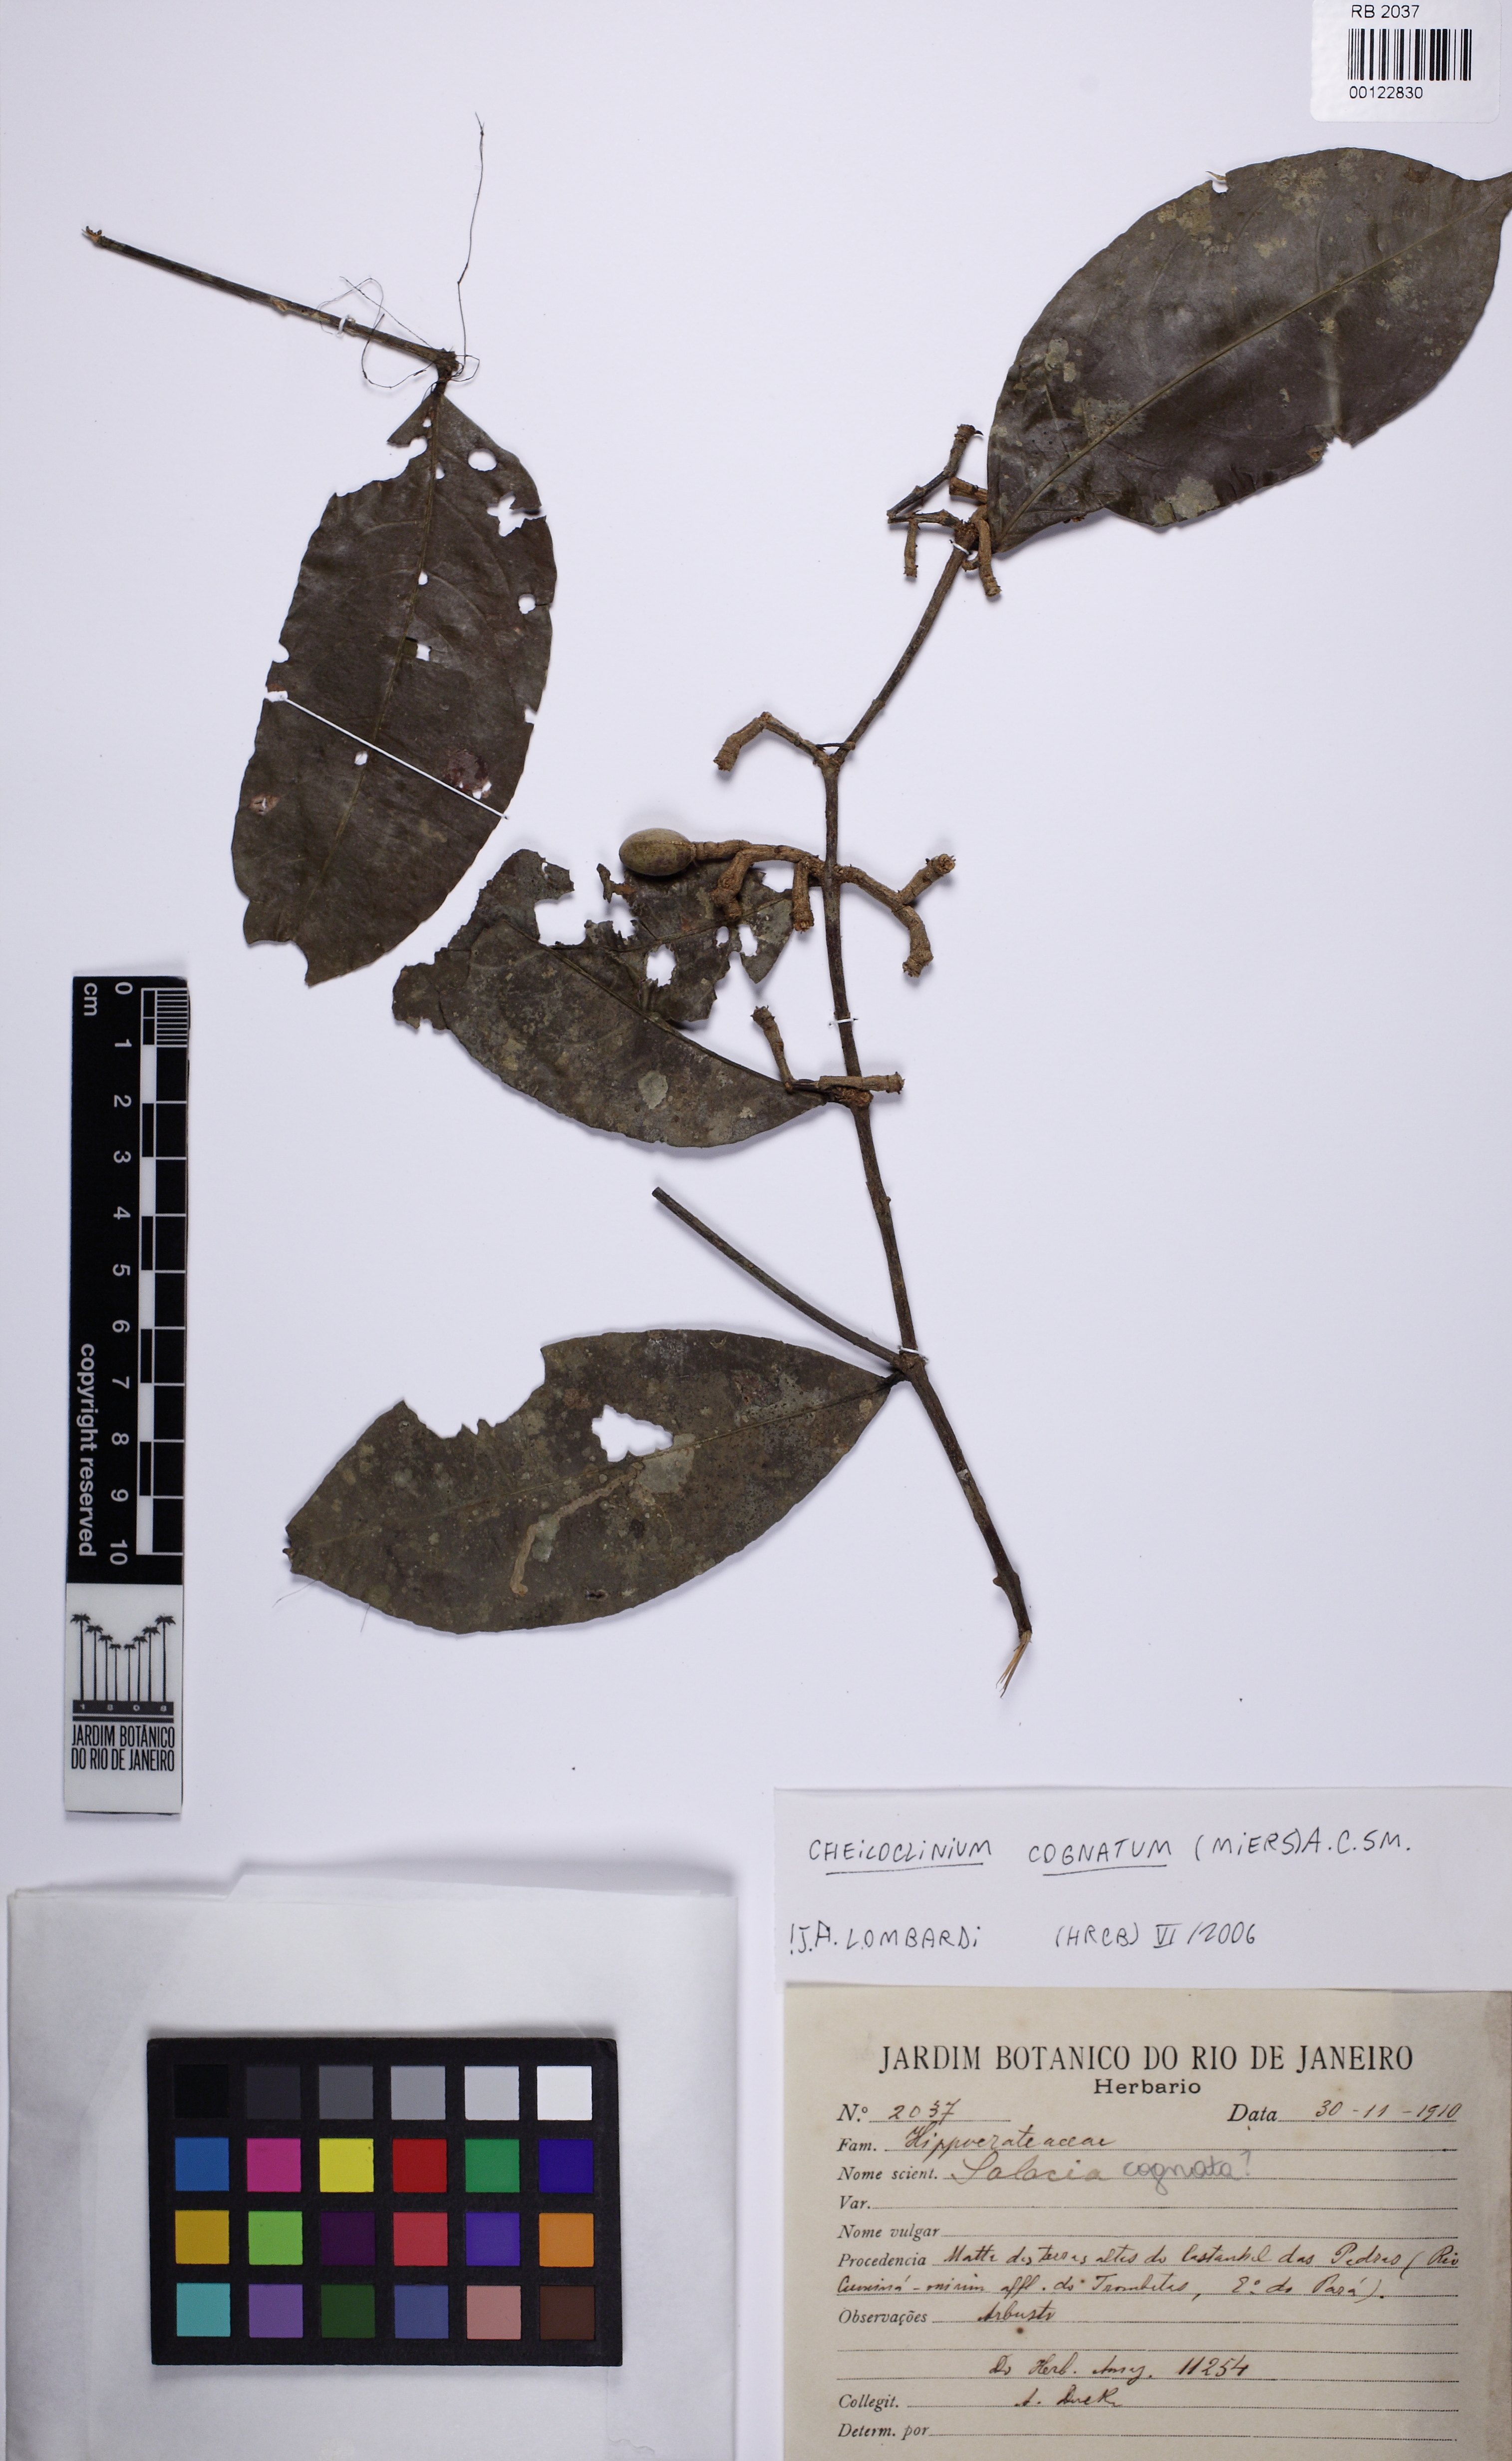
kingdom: Plantae
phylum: Tracheophyta
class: Magnoliopsida
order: Celastrales
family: Celastraceae
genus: Cheiloclinium
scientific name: Cheiloclinium cognatum
